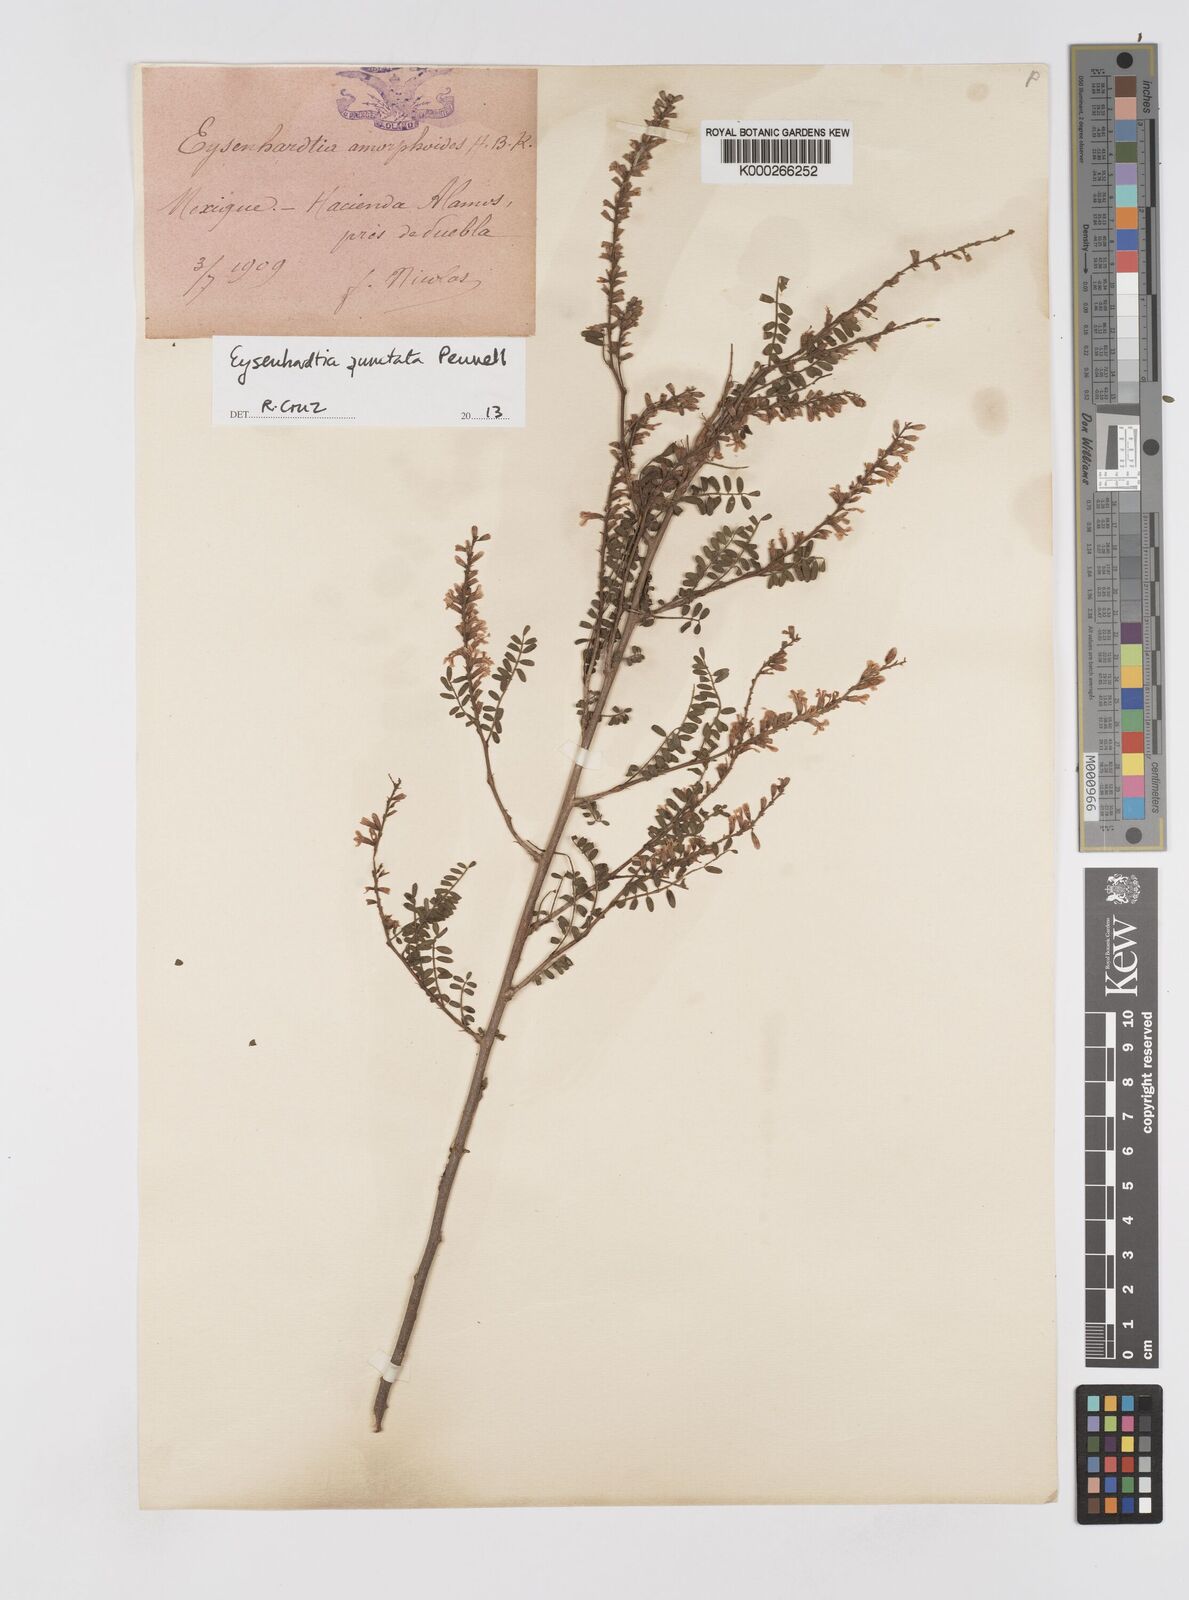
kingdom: Plantae
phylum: Tracheophyta
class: Magnoliopsida
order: Fabales
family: Fabaceae
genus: Eysenhardtia
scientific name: Eysenhardtia punctata
